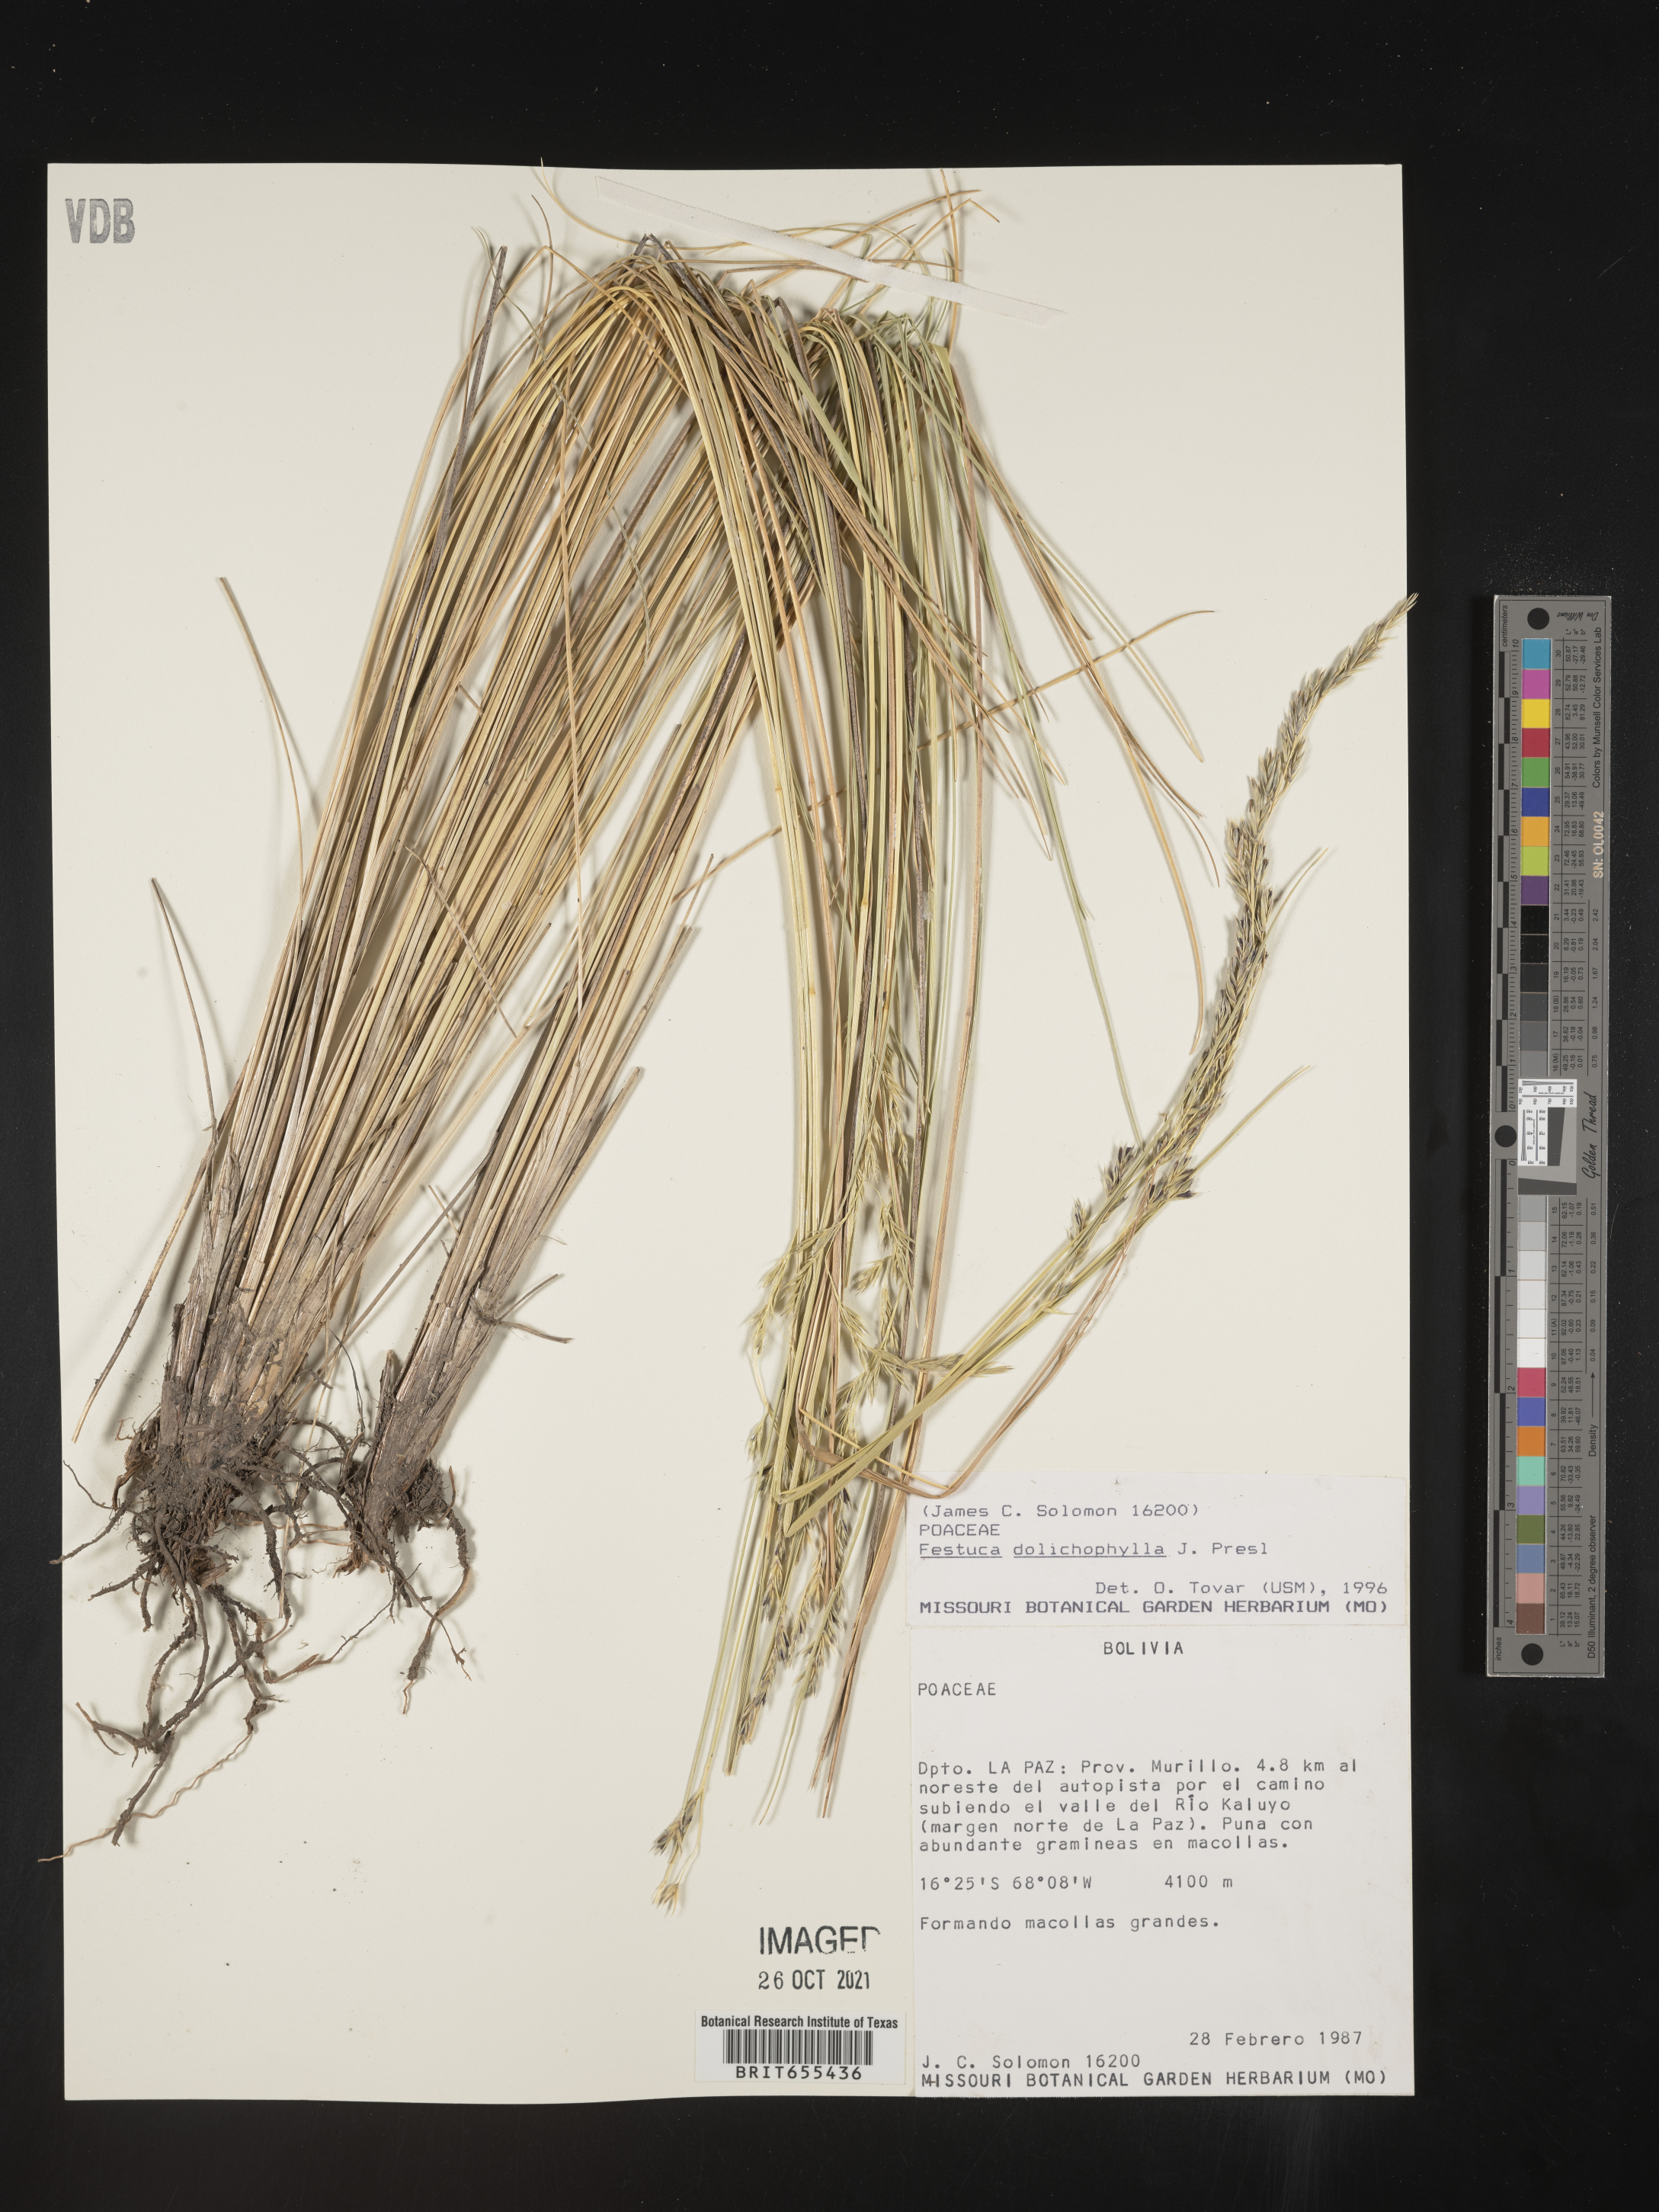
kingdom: Plantae
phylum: Tracheophyta
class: Liliopsida
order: Poales
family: Poaceae
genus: Festuca
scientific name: Festuca
